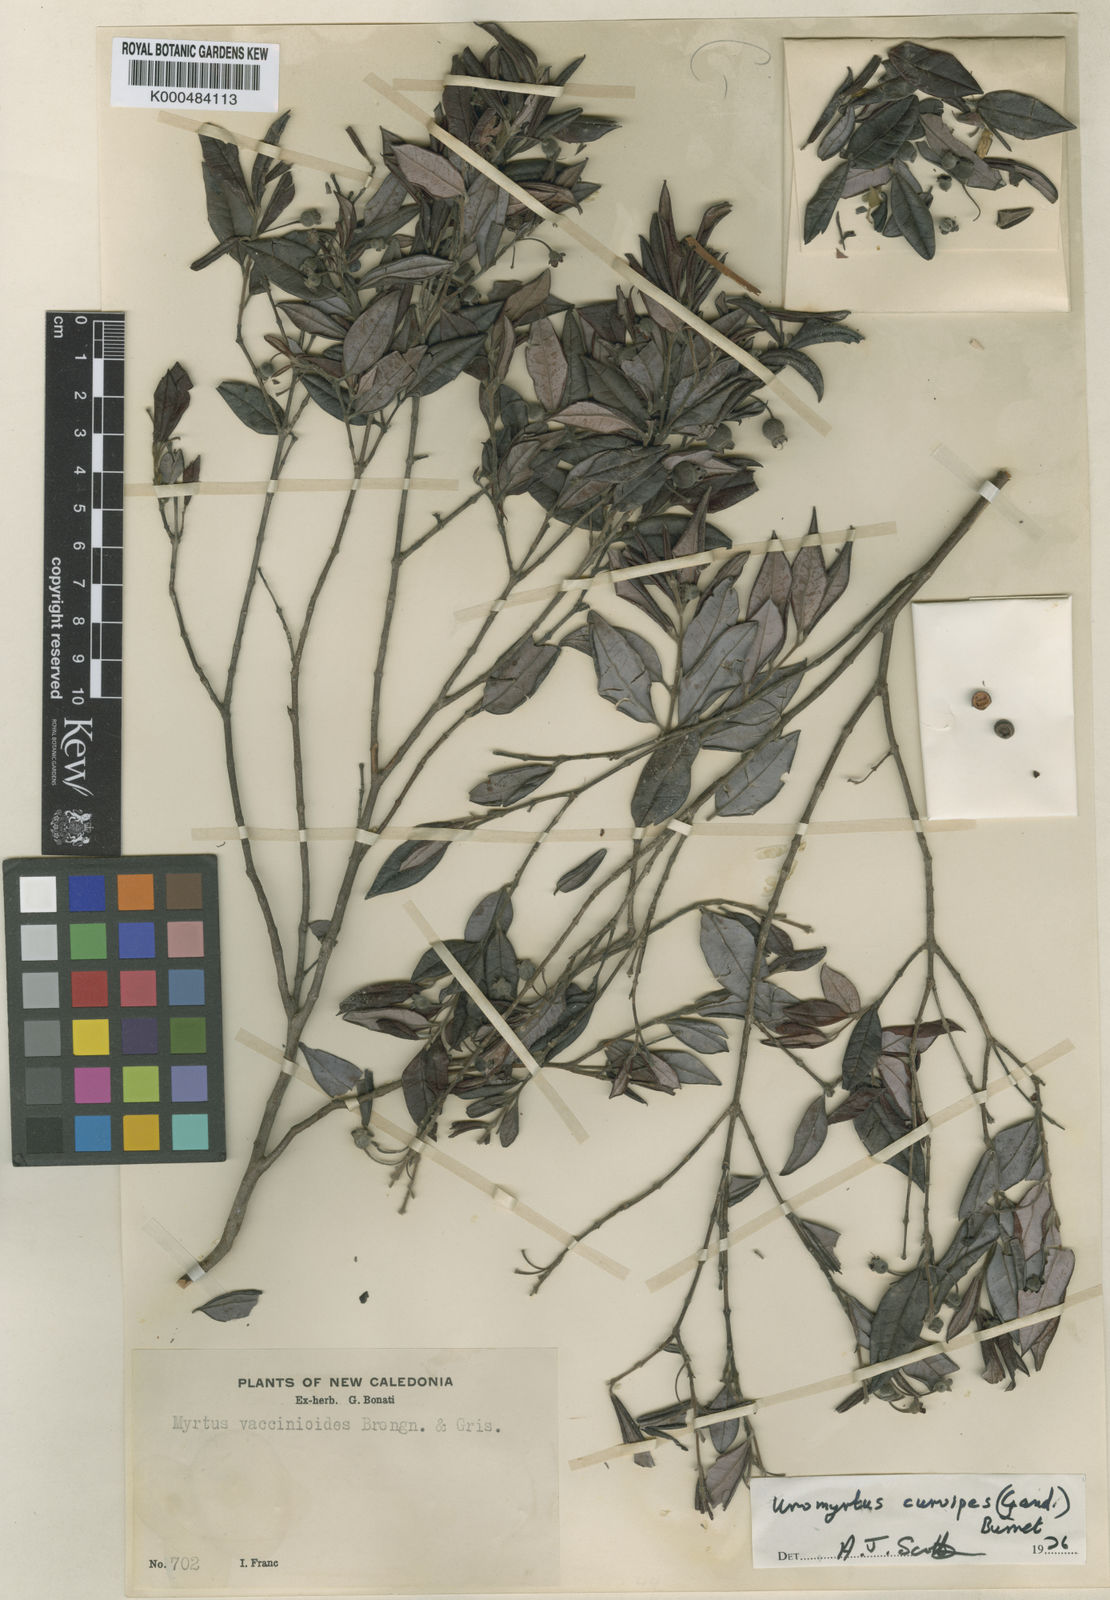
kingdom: Plantae
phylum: Tracheophyta
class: Magnoliopsida
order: Myrtales
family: Myrtaceae
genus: Uromyrtus
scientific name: Uromyrtus billardierei
